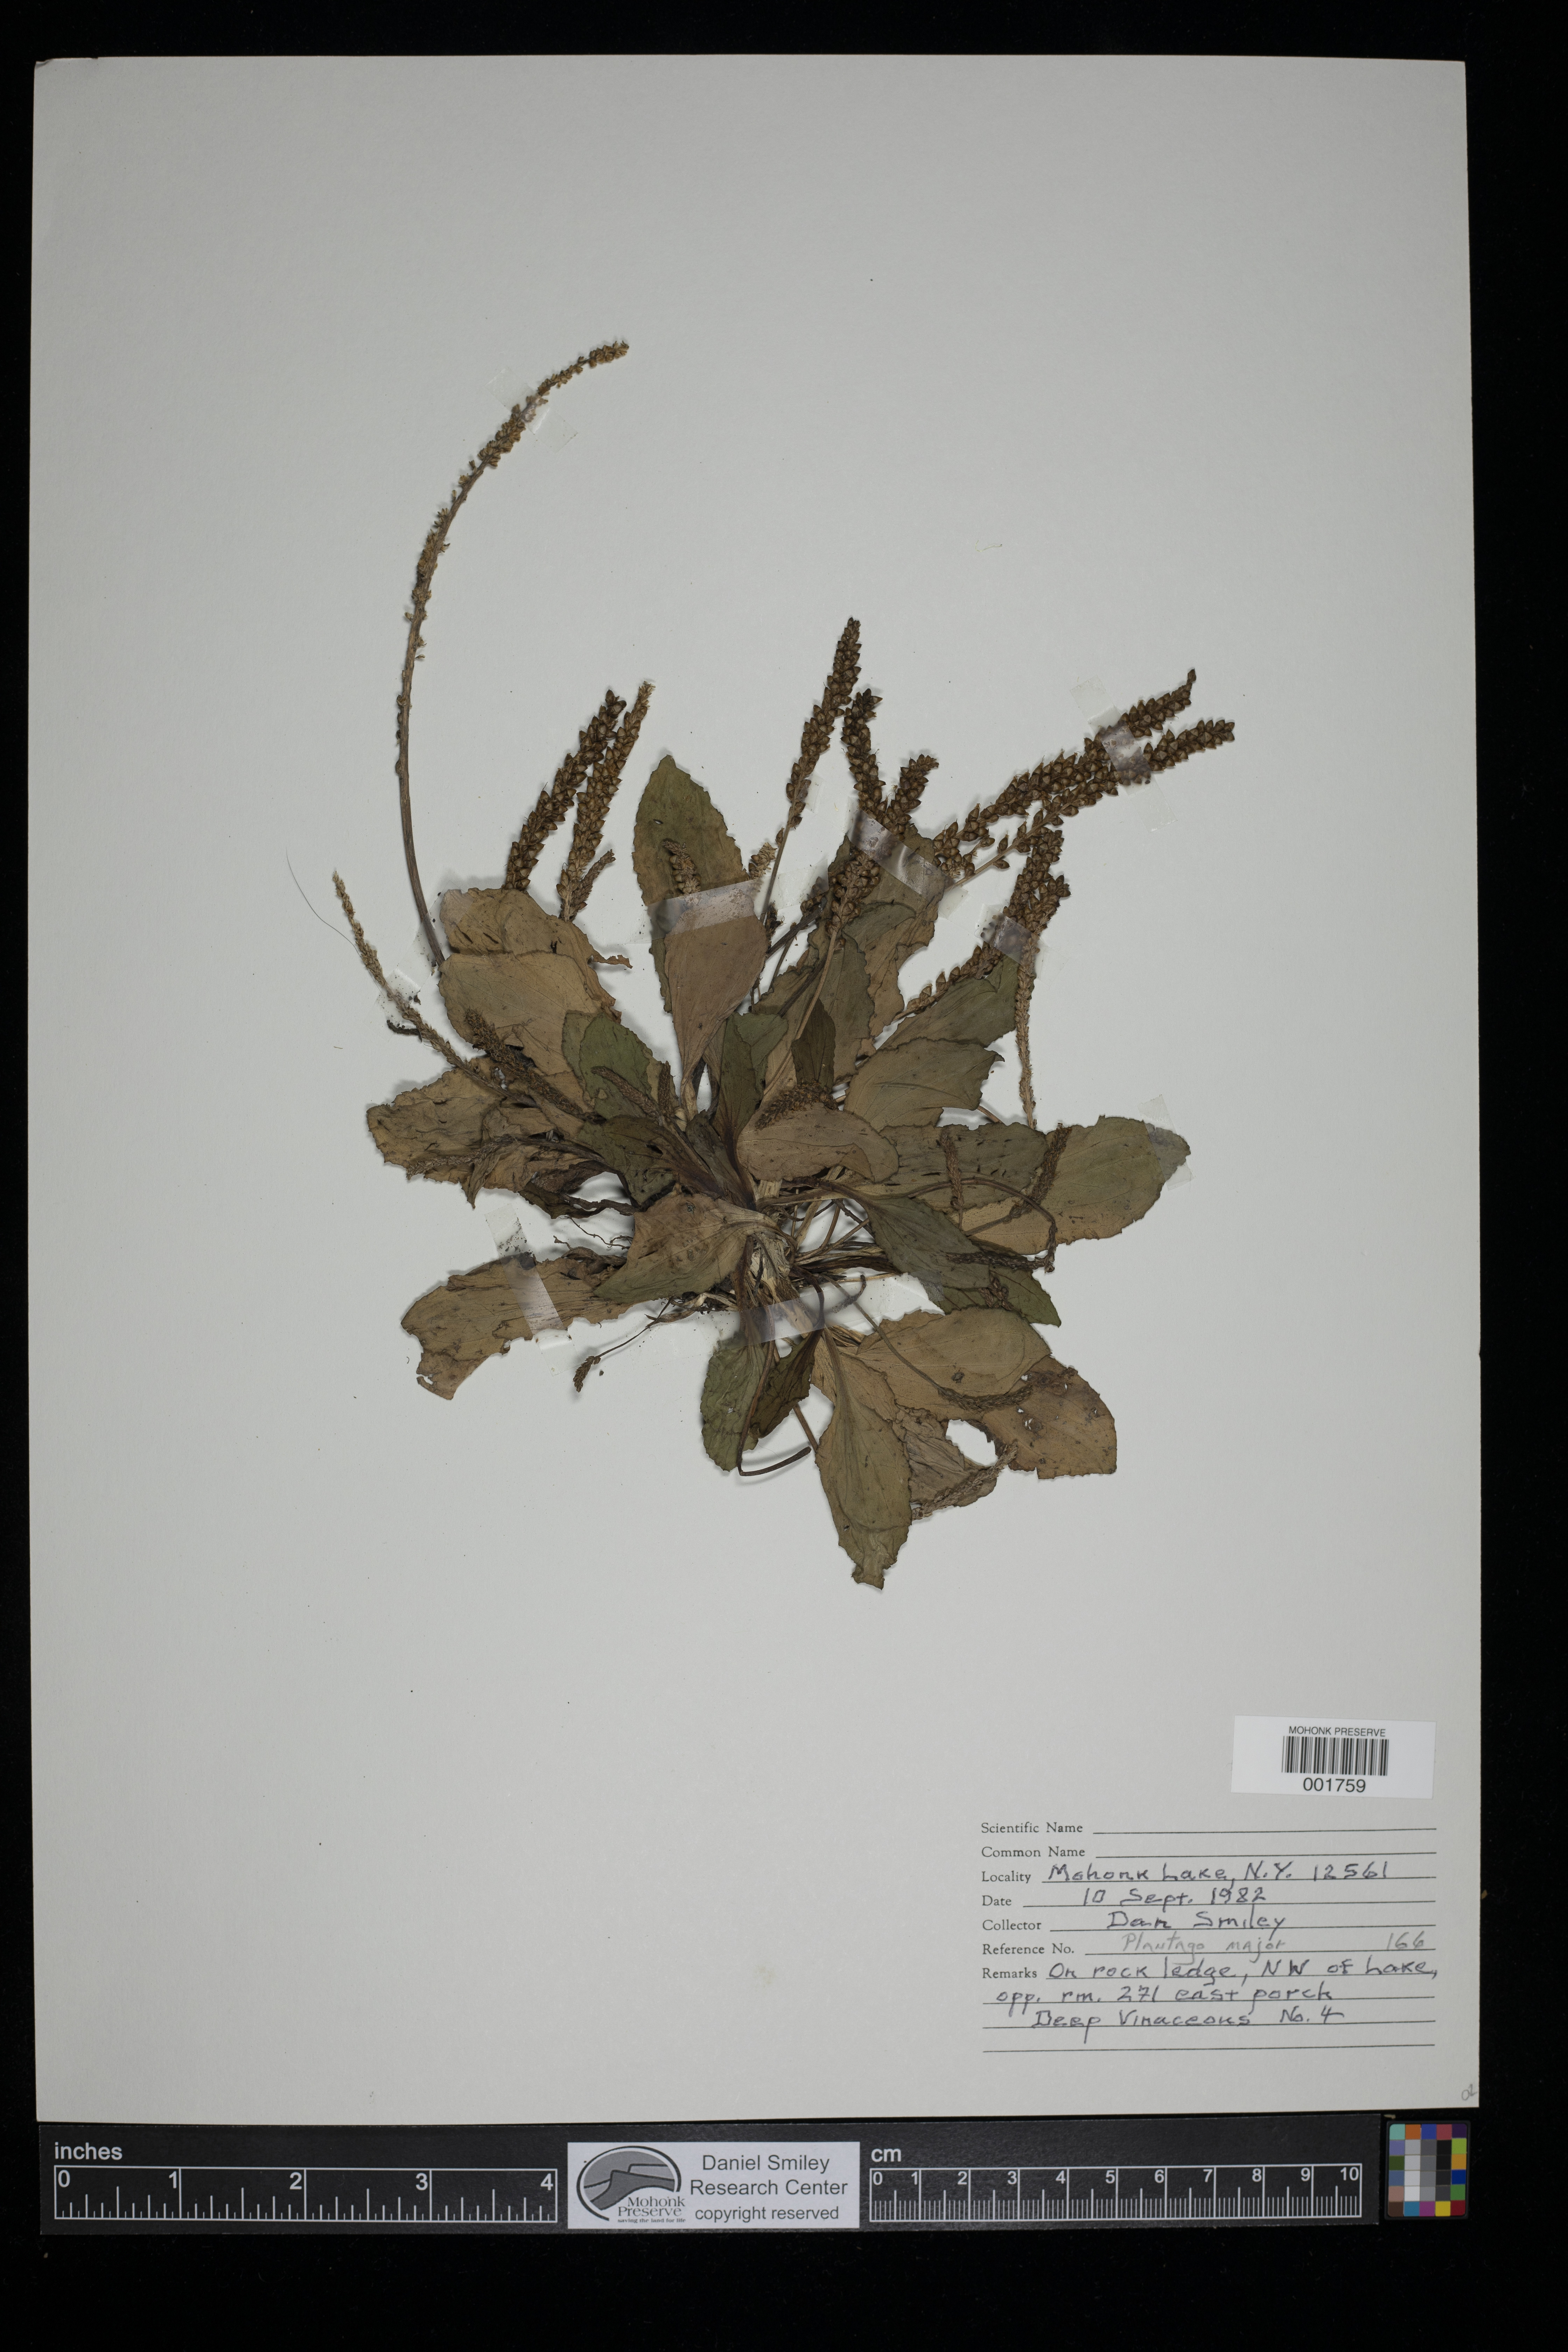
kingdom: Plantae
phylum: Tracheophyta
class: Magnoliopsida
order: Lamiales
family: Plantaginaceae
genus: Plantago
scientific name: Plantago major
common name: Common plantain
